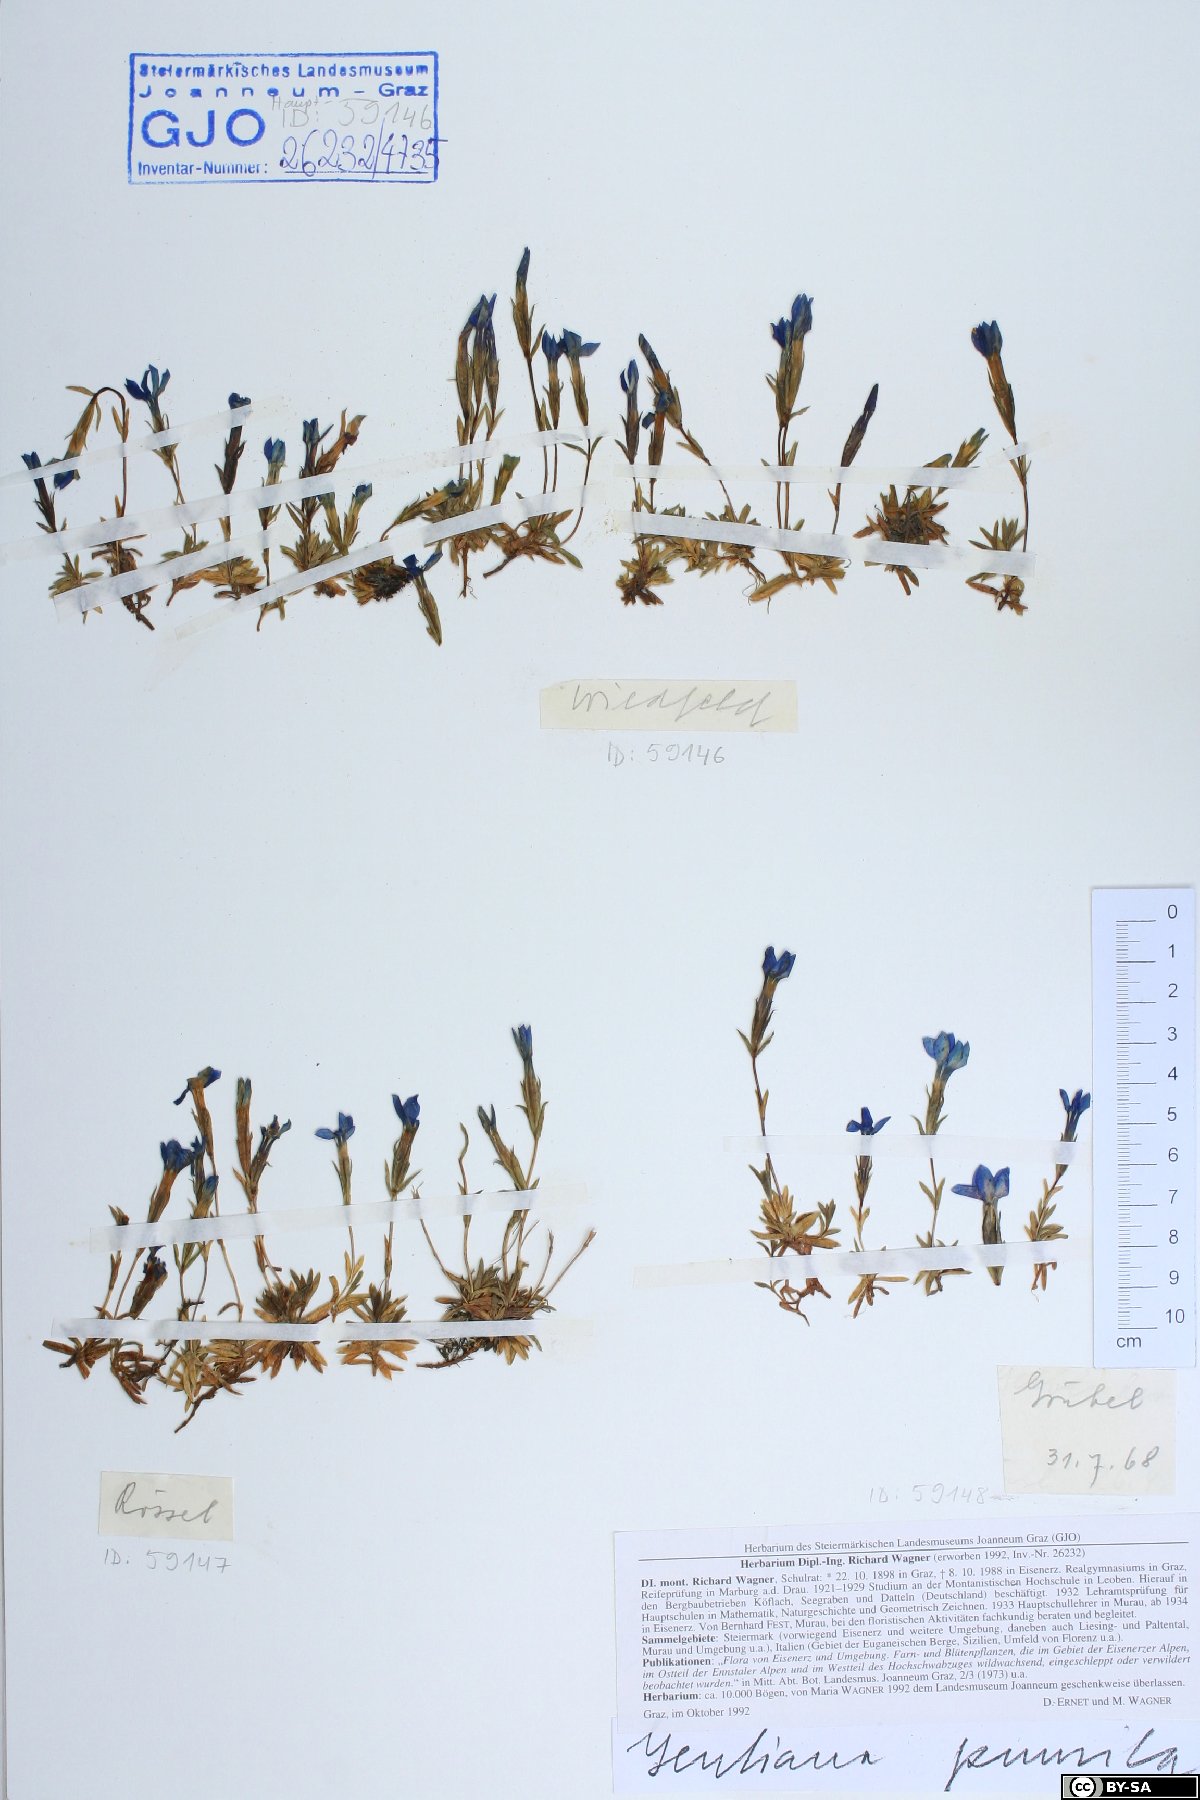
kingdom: Plantae
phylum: Tracheophyta
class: Magnoliopsida
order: Gentianales
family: Gentianaceae
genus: Gentiana
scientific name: Gentiana pumila
